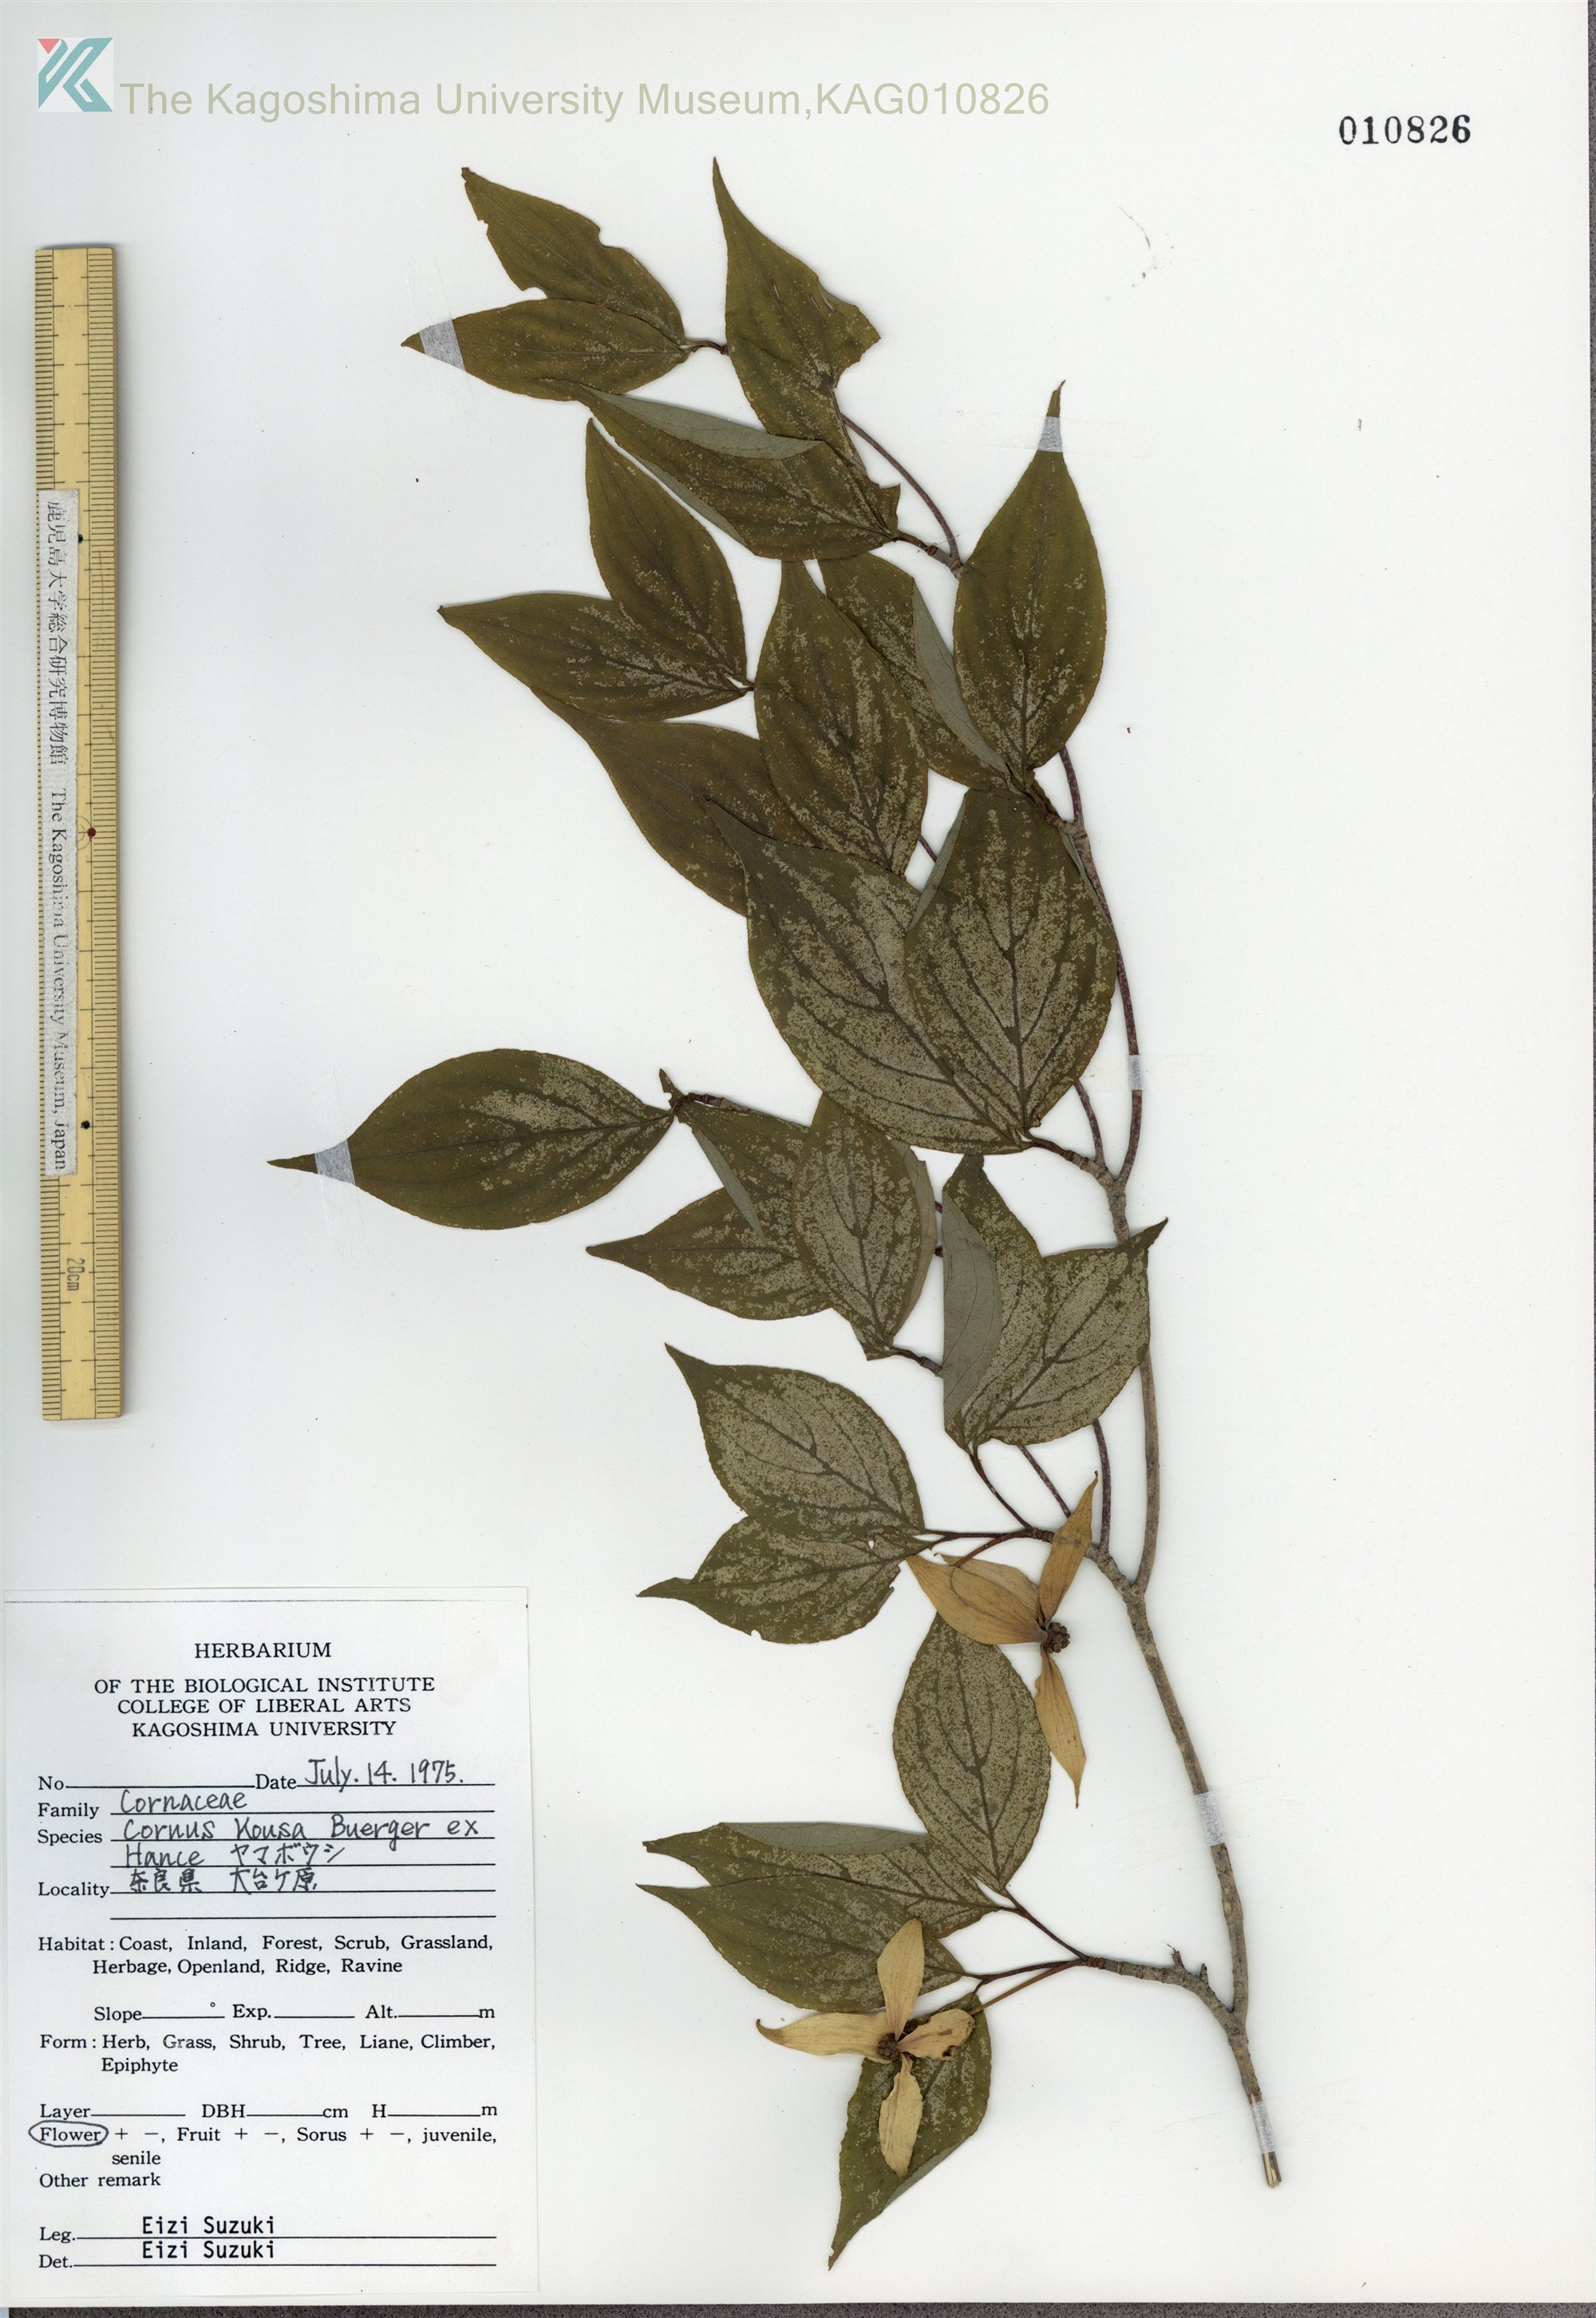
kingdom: Plantae
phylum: Tracheophyta
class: Magnoliopsida
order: Cornales
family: Cornaceae
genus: Cornus
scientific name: Cornus kousa
